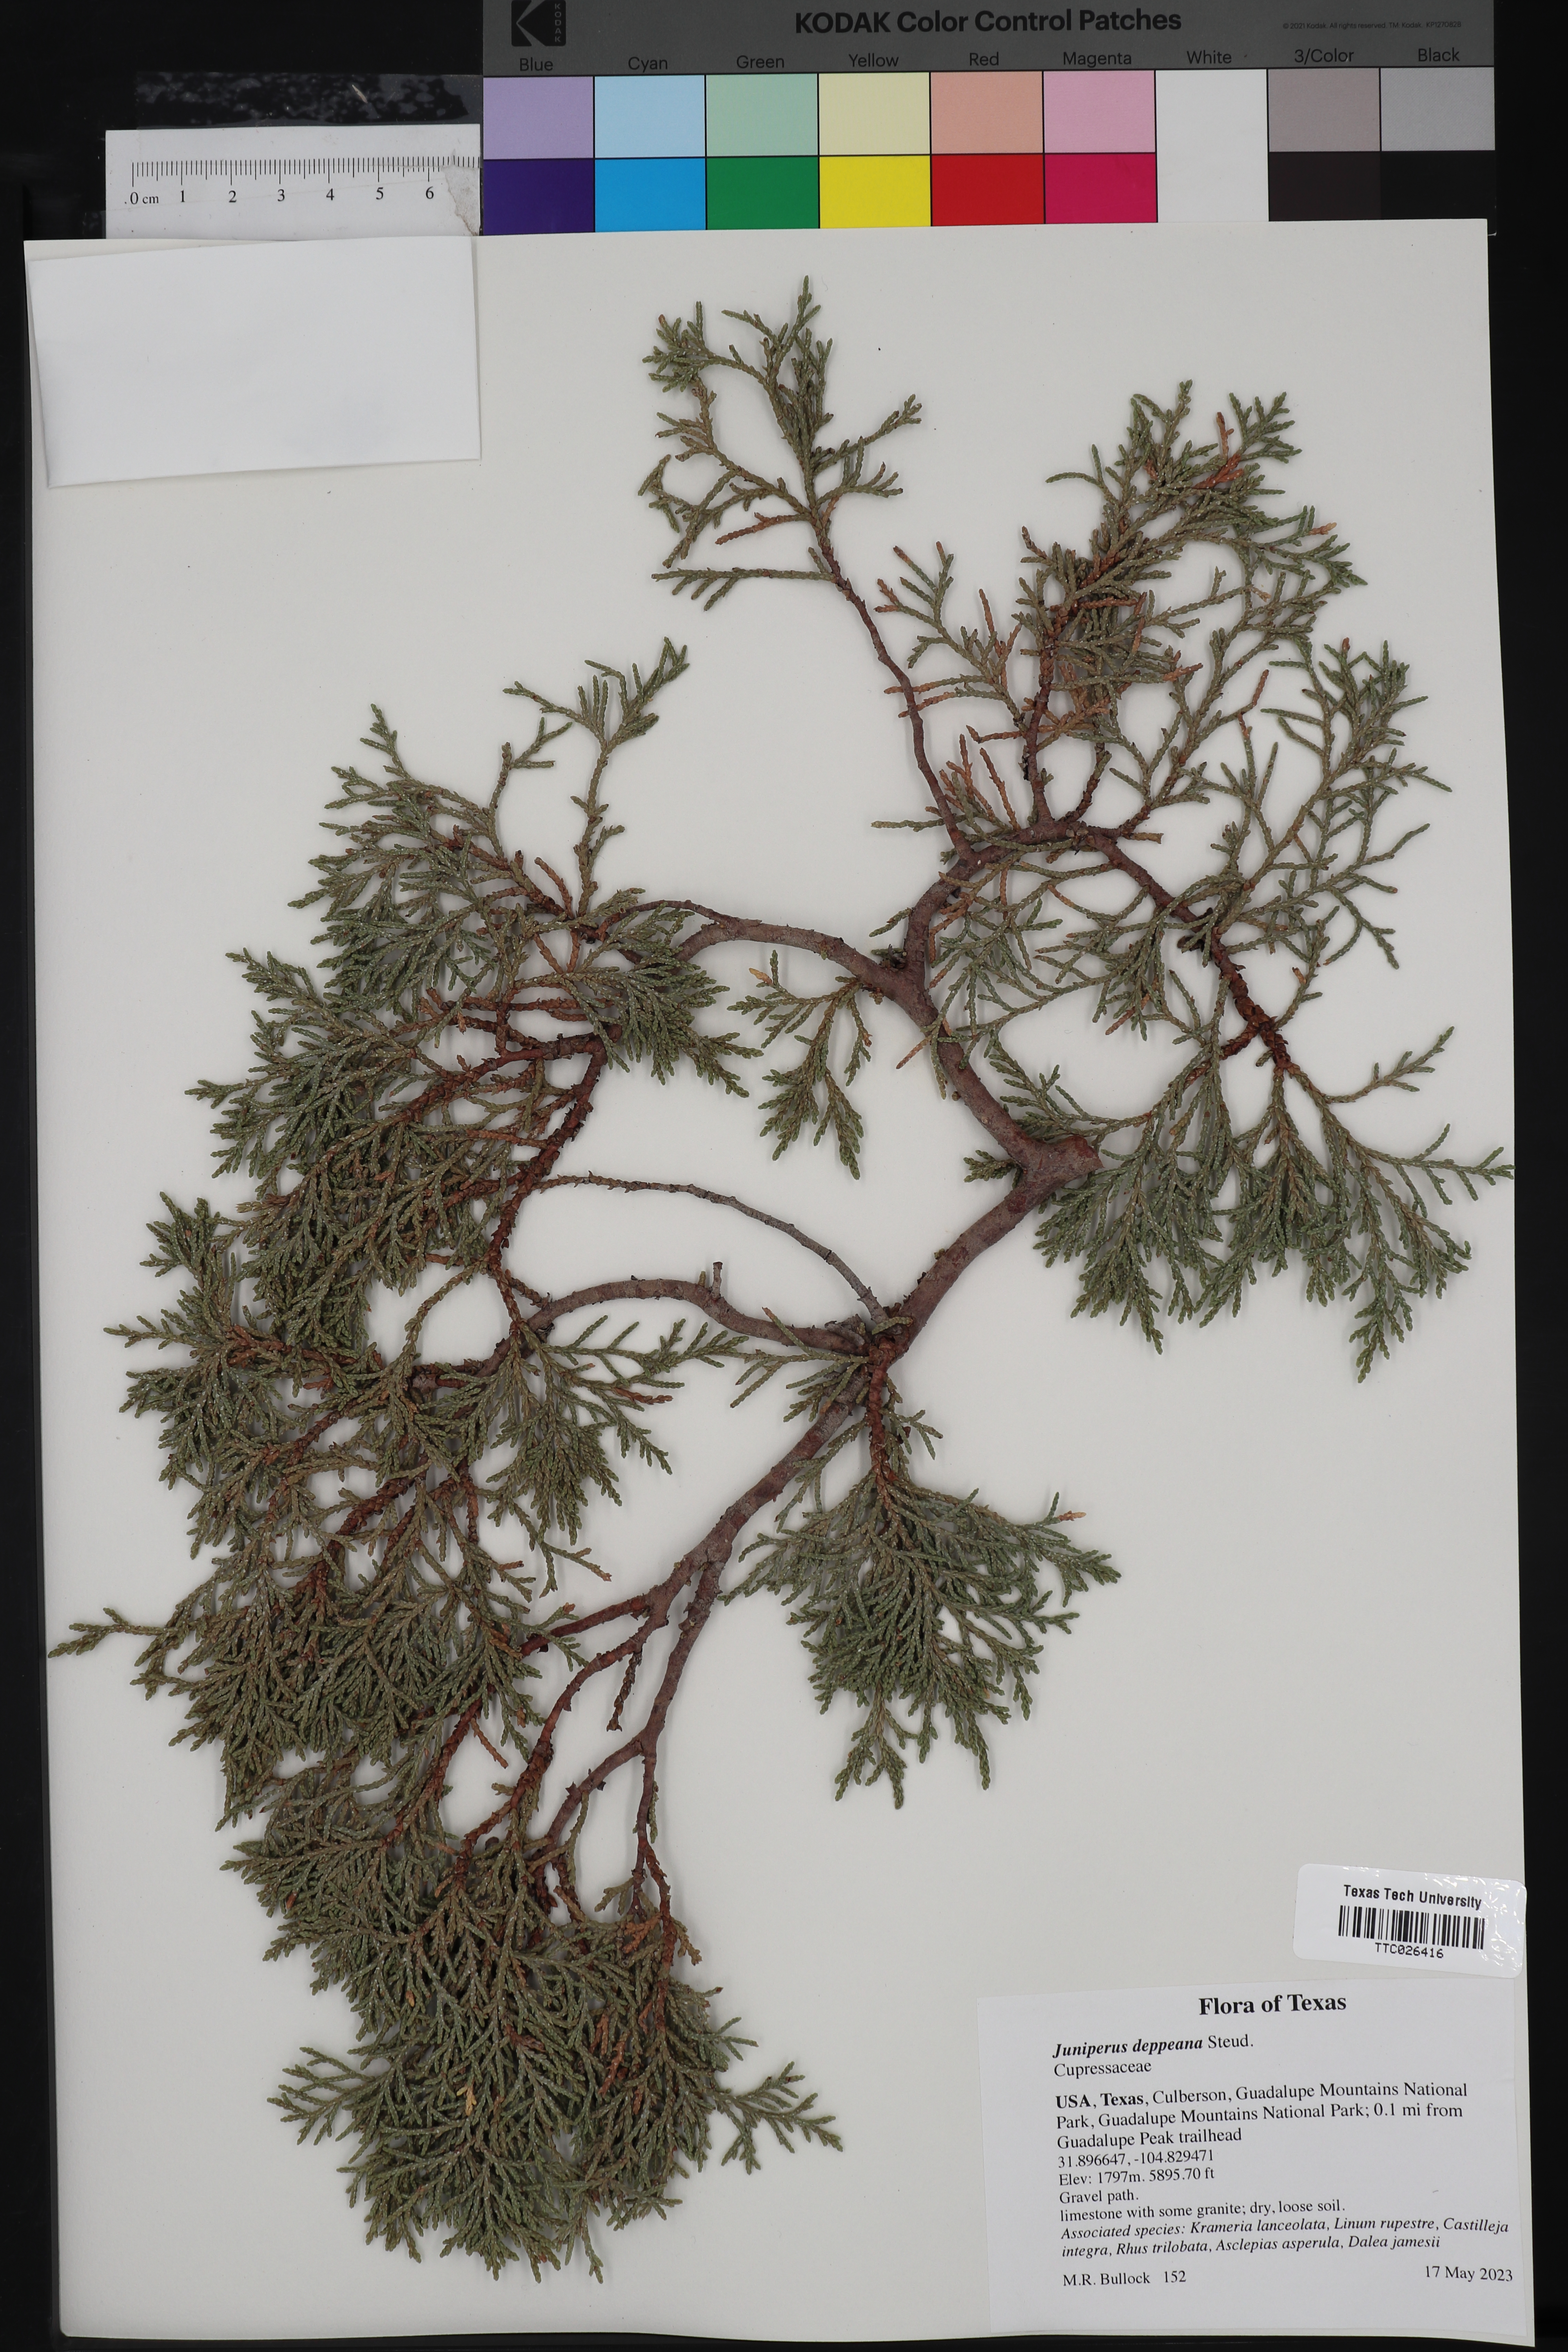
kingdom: Plantae
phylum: Tracheophyta
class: Pinopsida
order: Pinales
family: Cupressaceae
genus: Juniperus
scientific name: Juniperus deppeana
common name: Alligator juniper
